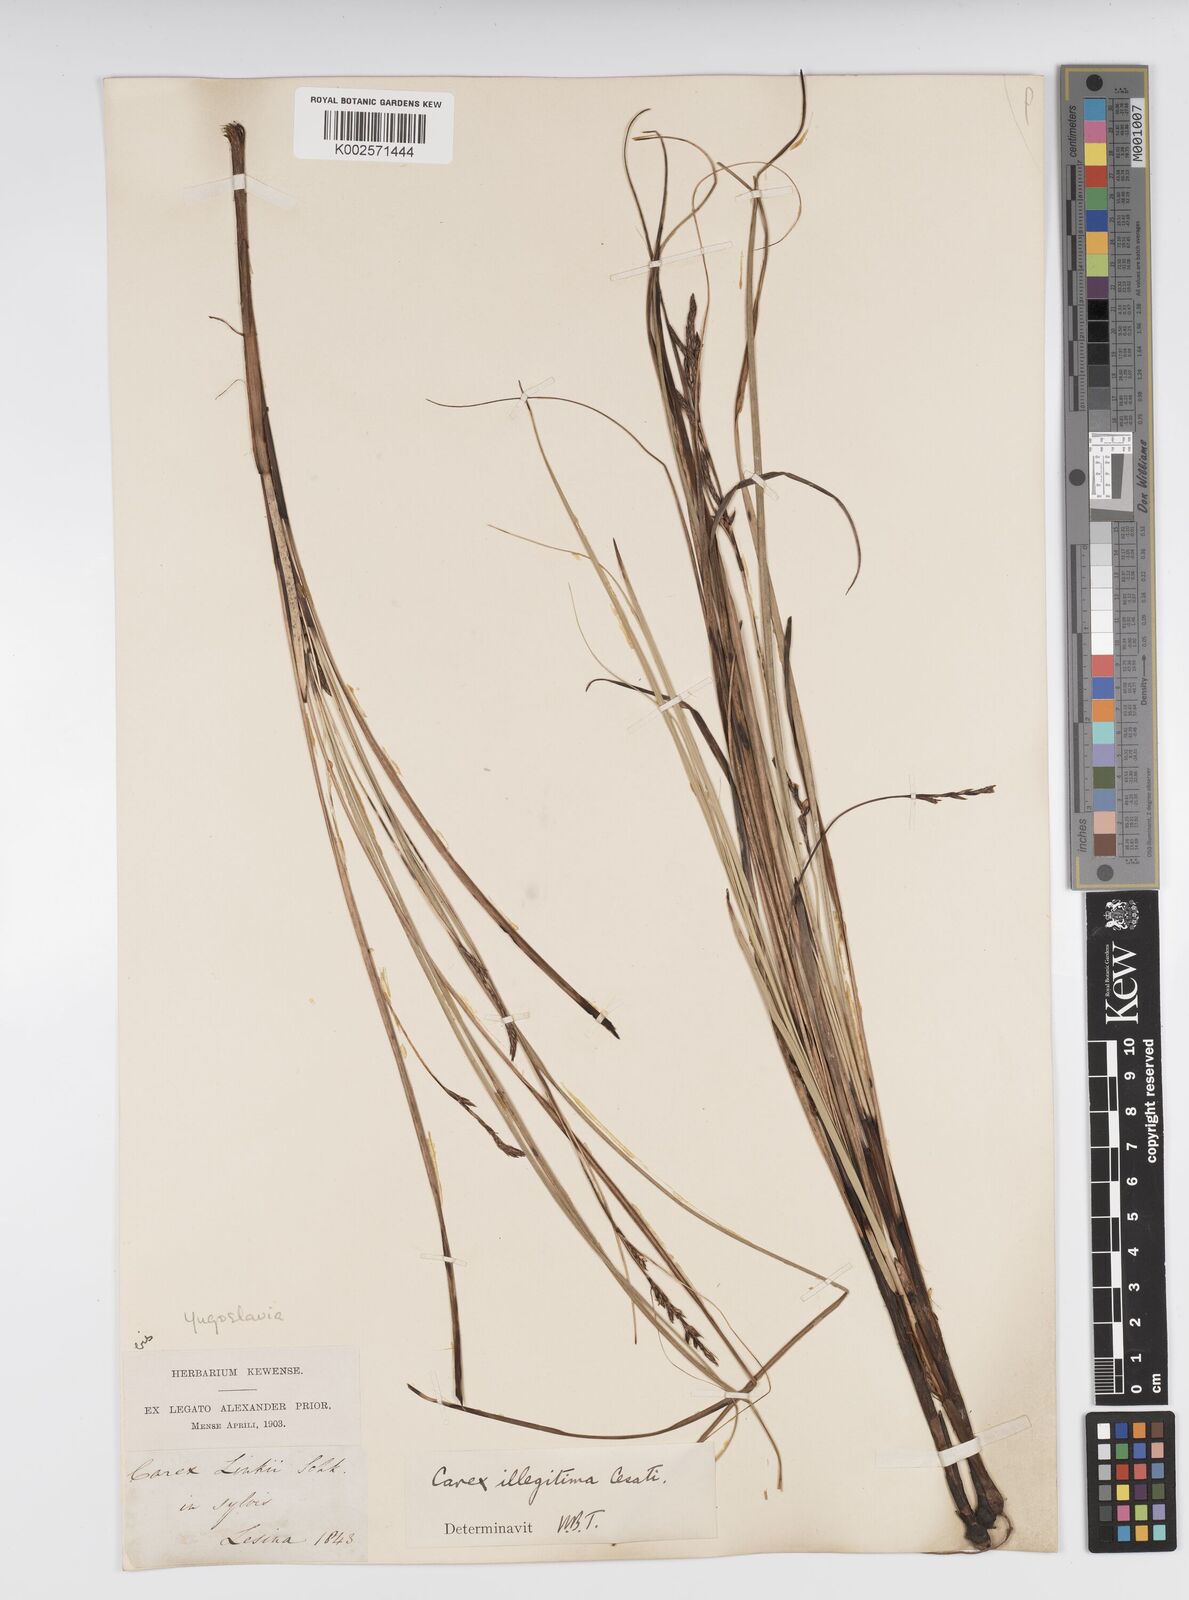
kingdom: Plantae
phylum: Tracheophyta
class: Liliopsida
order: Poales
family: Cyperaceae
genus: Carex
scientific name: Carex illegitima
